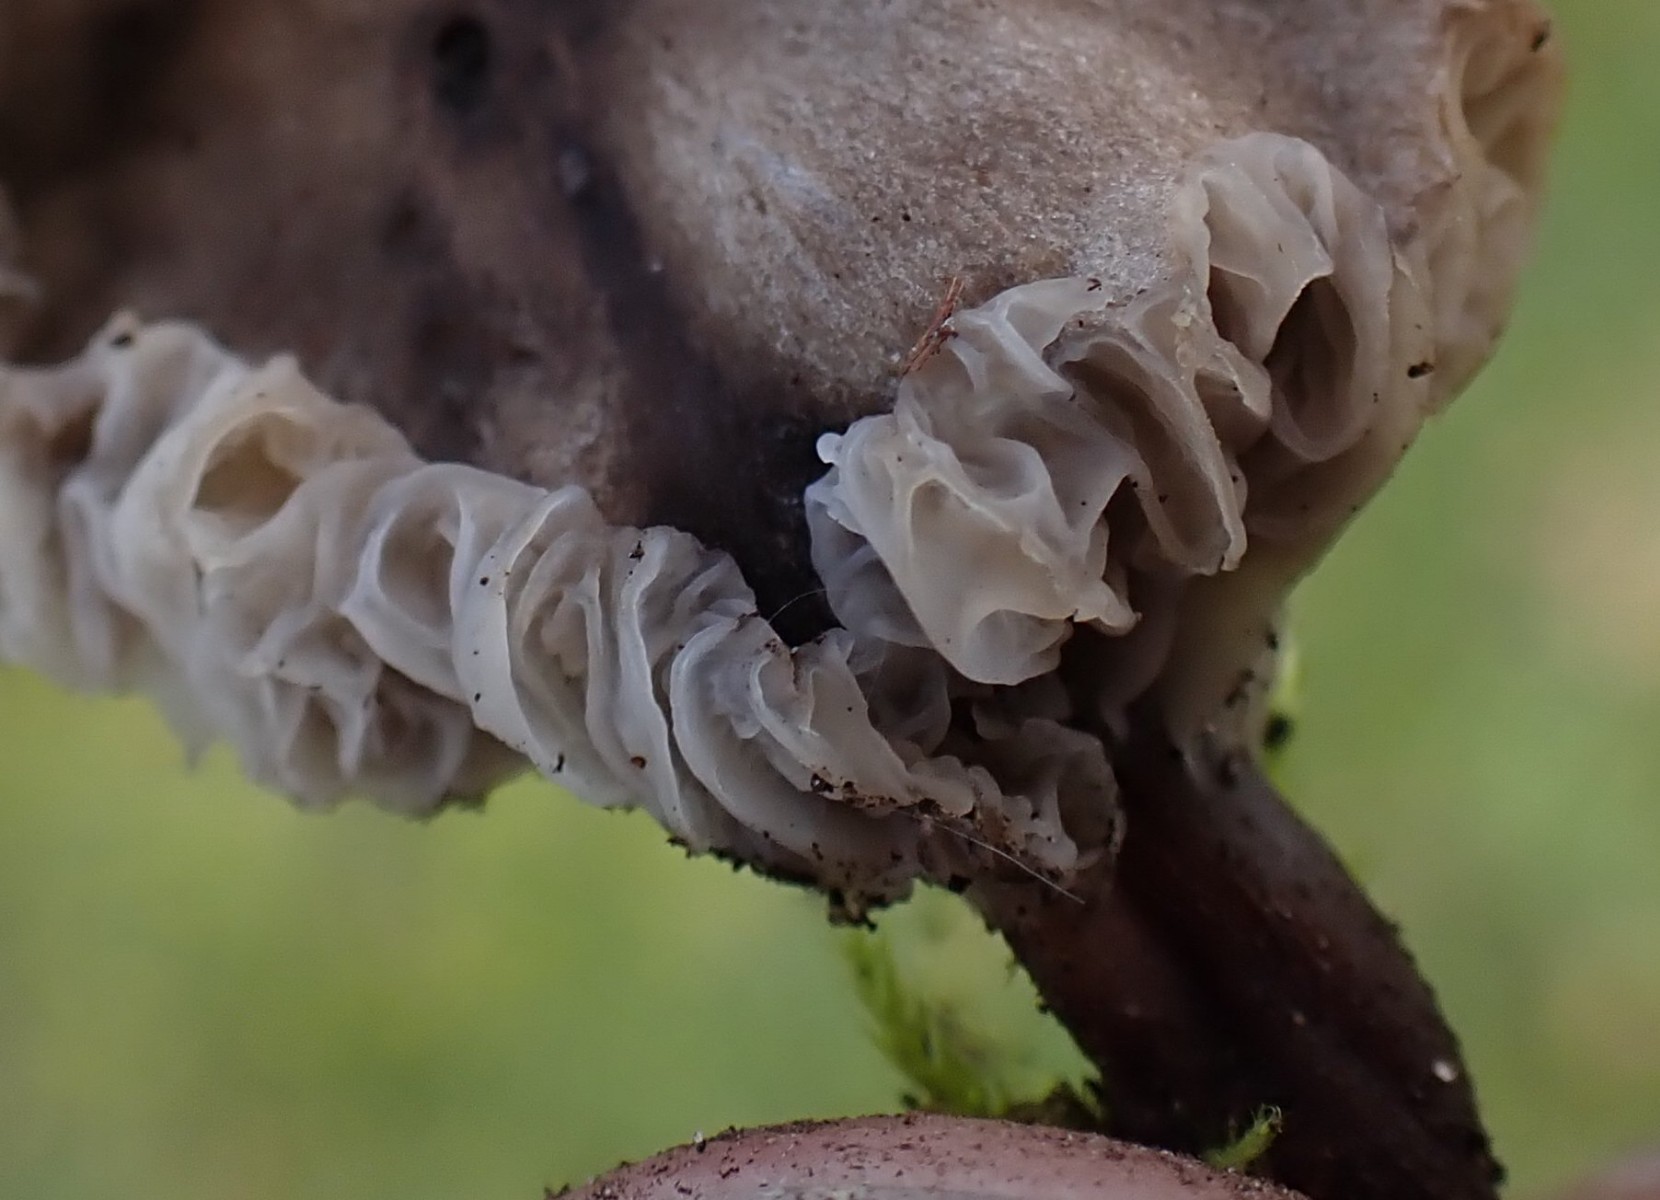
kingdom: Fungi
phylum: Basidiomycota
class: Agaricomycetes
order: Agaricales
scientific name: Agaricales
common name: champignonordenen
